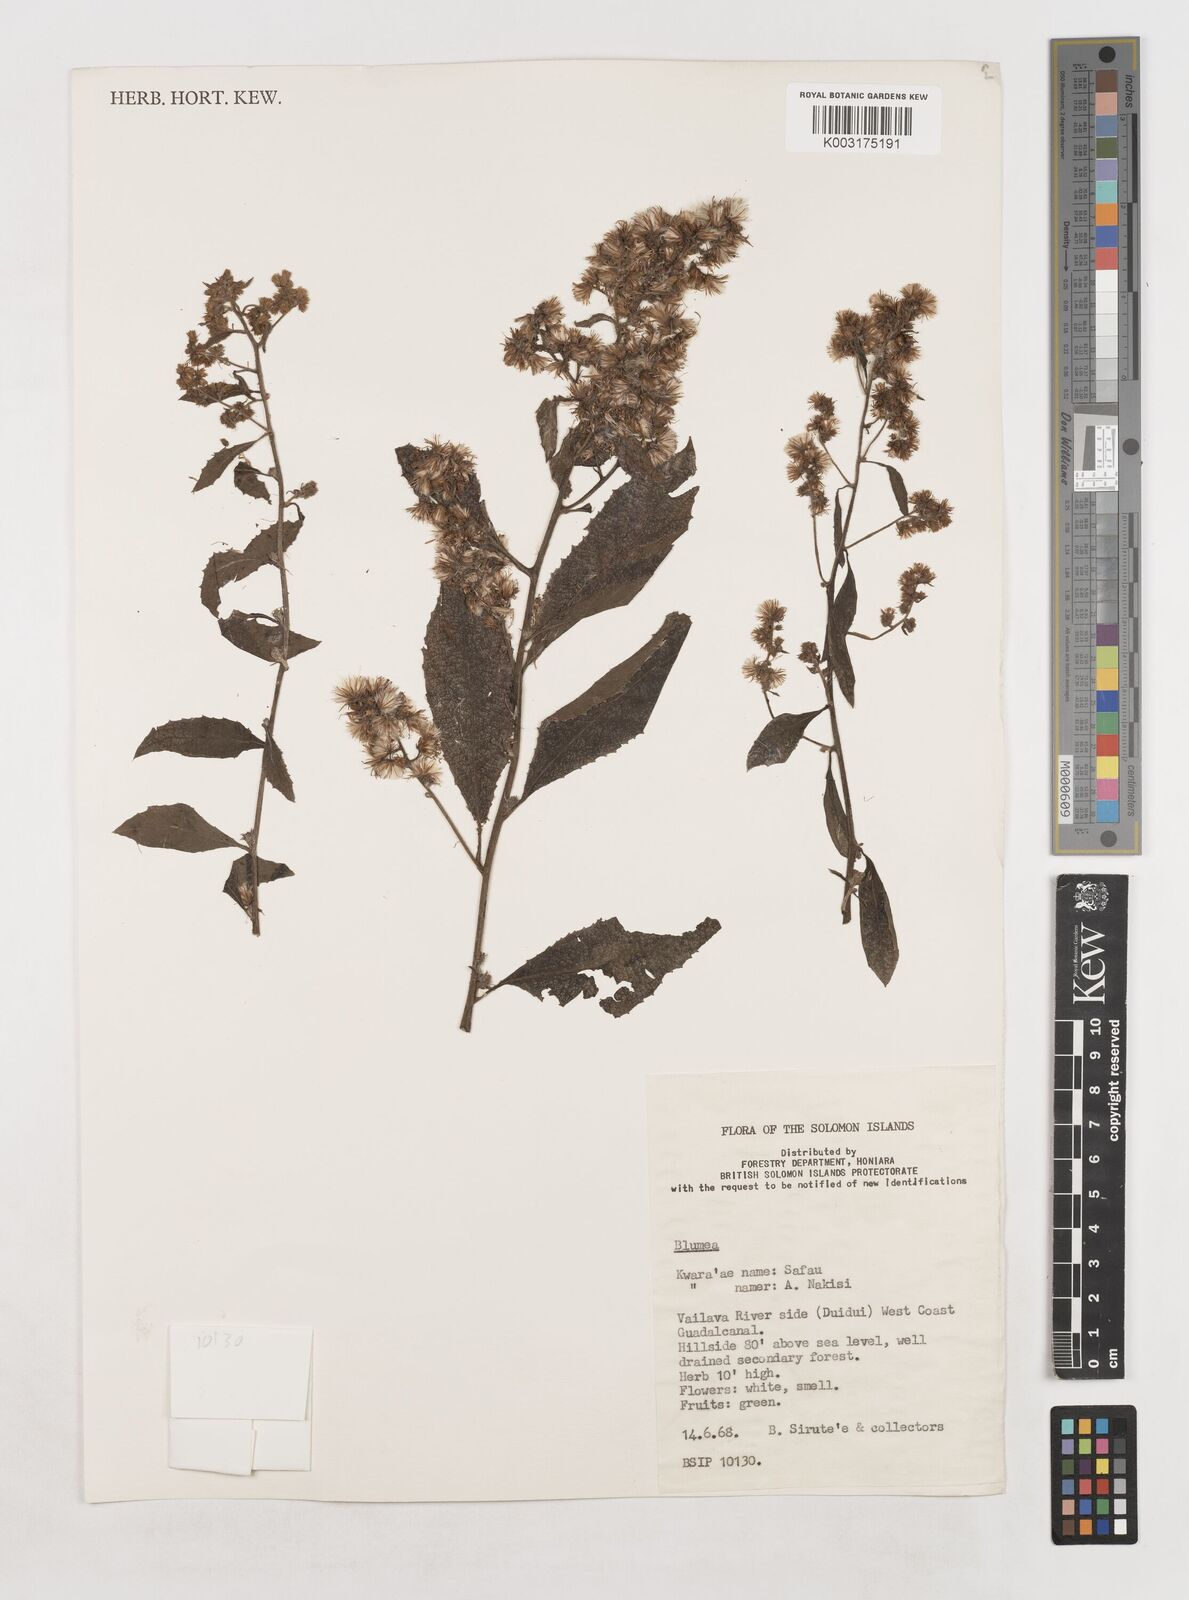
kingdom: Plantae
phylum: Tracheophyta
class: Magnoliopsida
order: Asterales
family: Asteraceae
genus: Blumea
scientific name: Blumea
